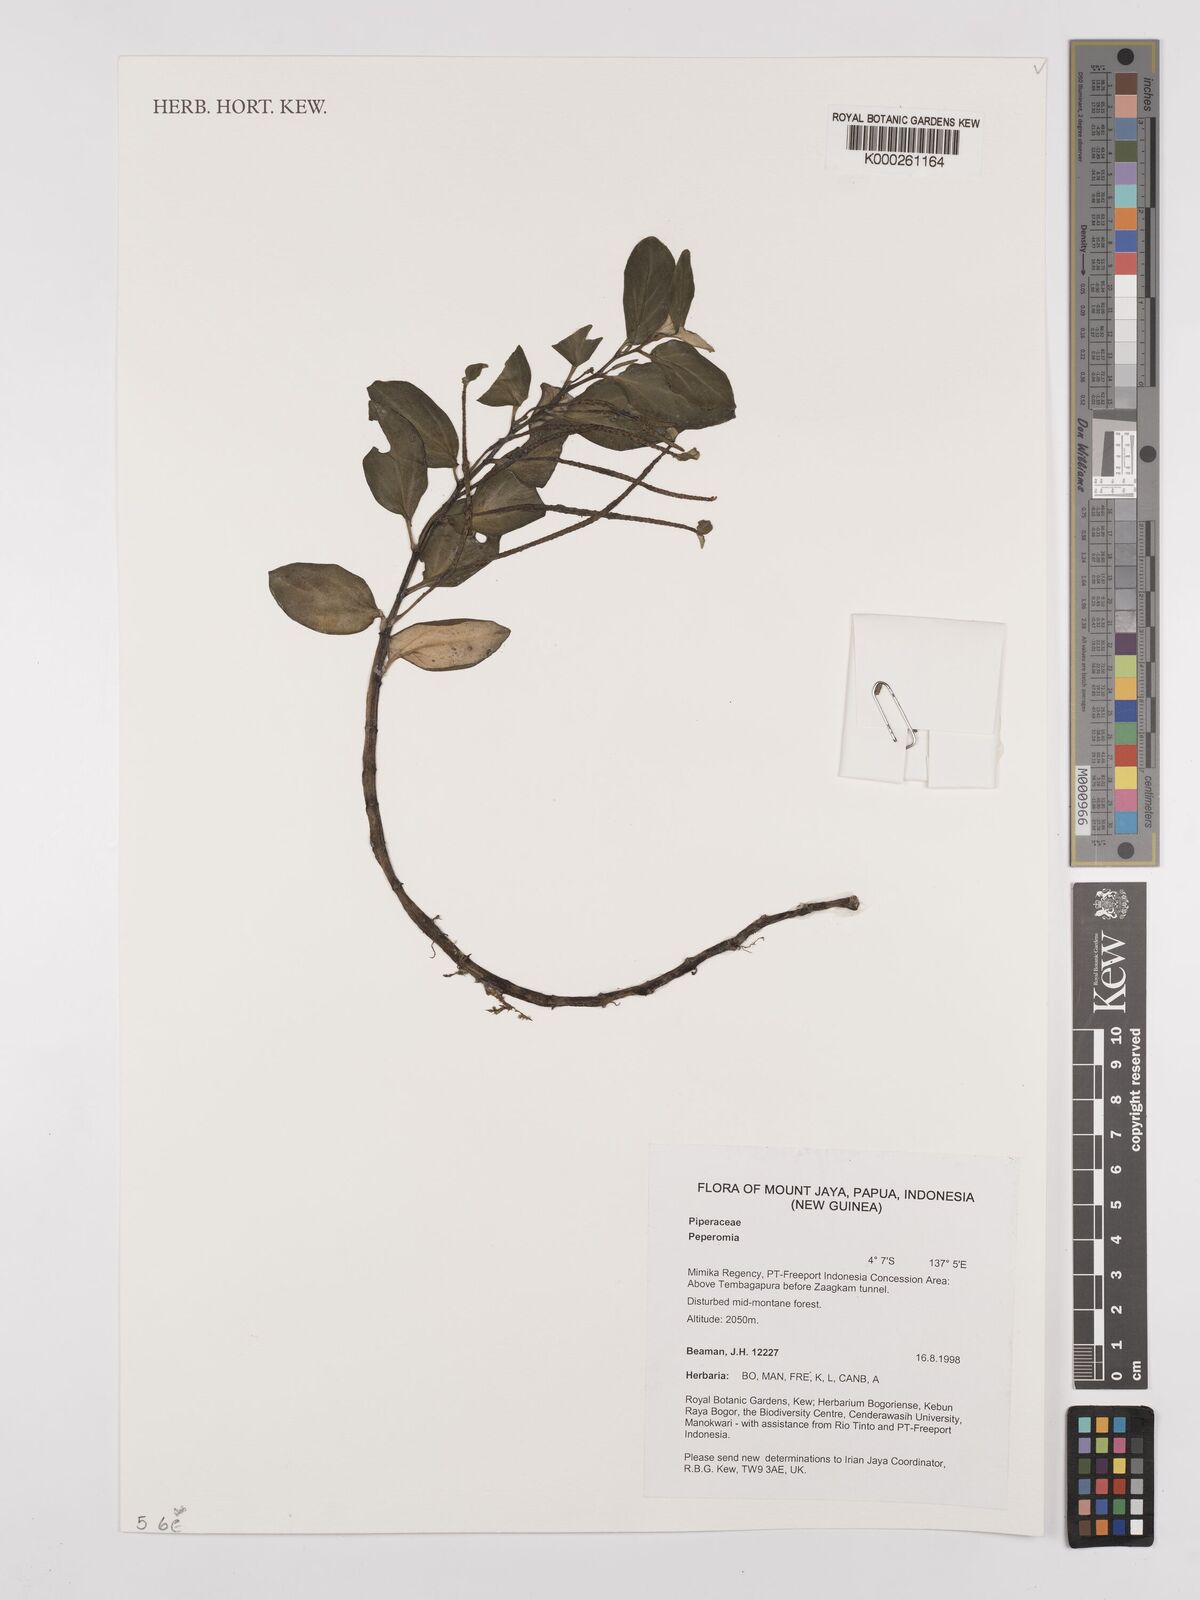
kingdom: Plantae
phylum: Tracheophyta
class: Magnoliopsida
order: Piperales
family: Piperaceae
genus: Peperomia
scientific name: Peperomia
